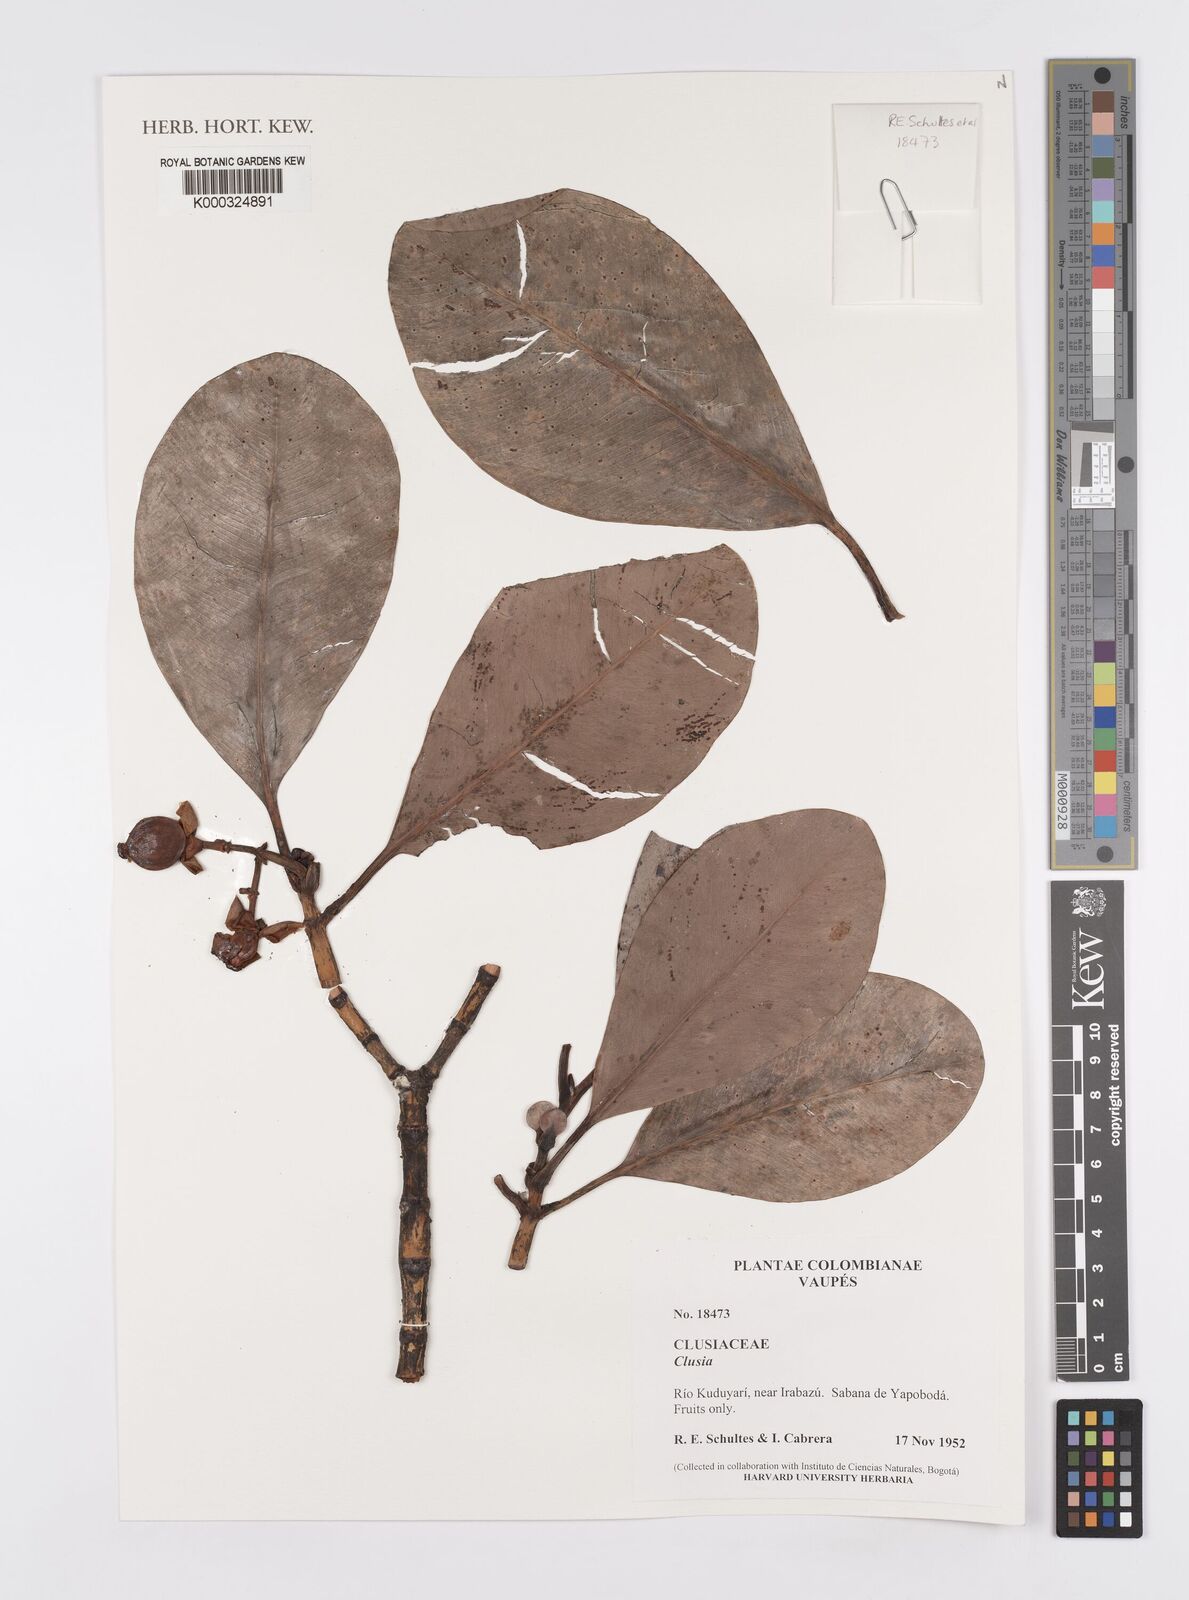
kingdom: Plantae
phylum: Tracheophyta
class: Magnoliopsida
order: Malpighiales
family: Clusiaceae
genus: Clusia
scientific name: Clusia
